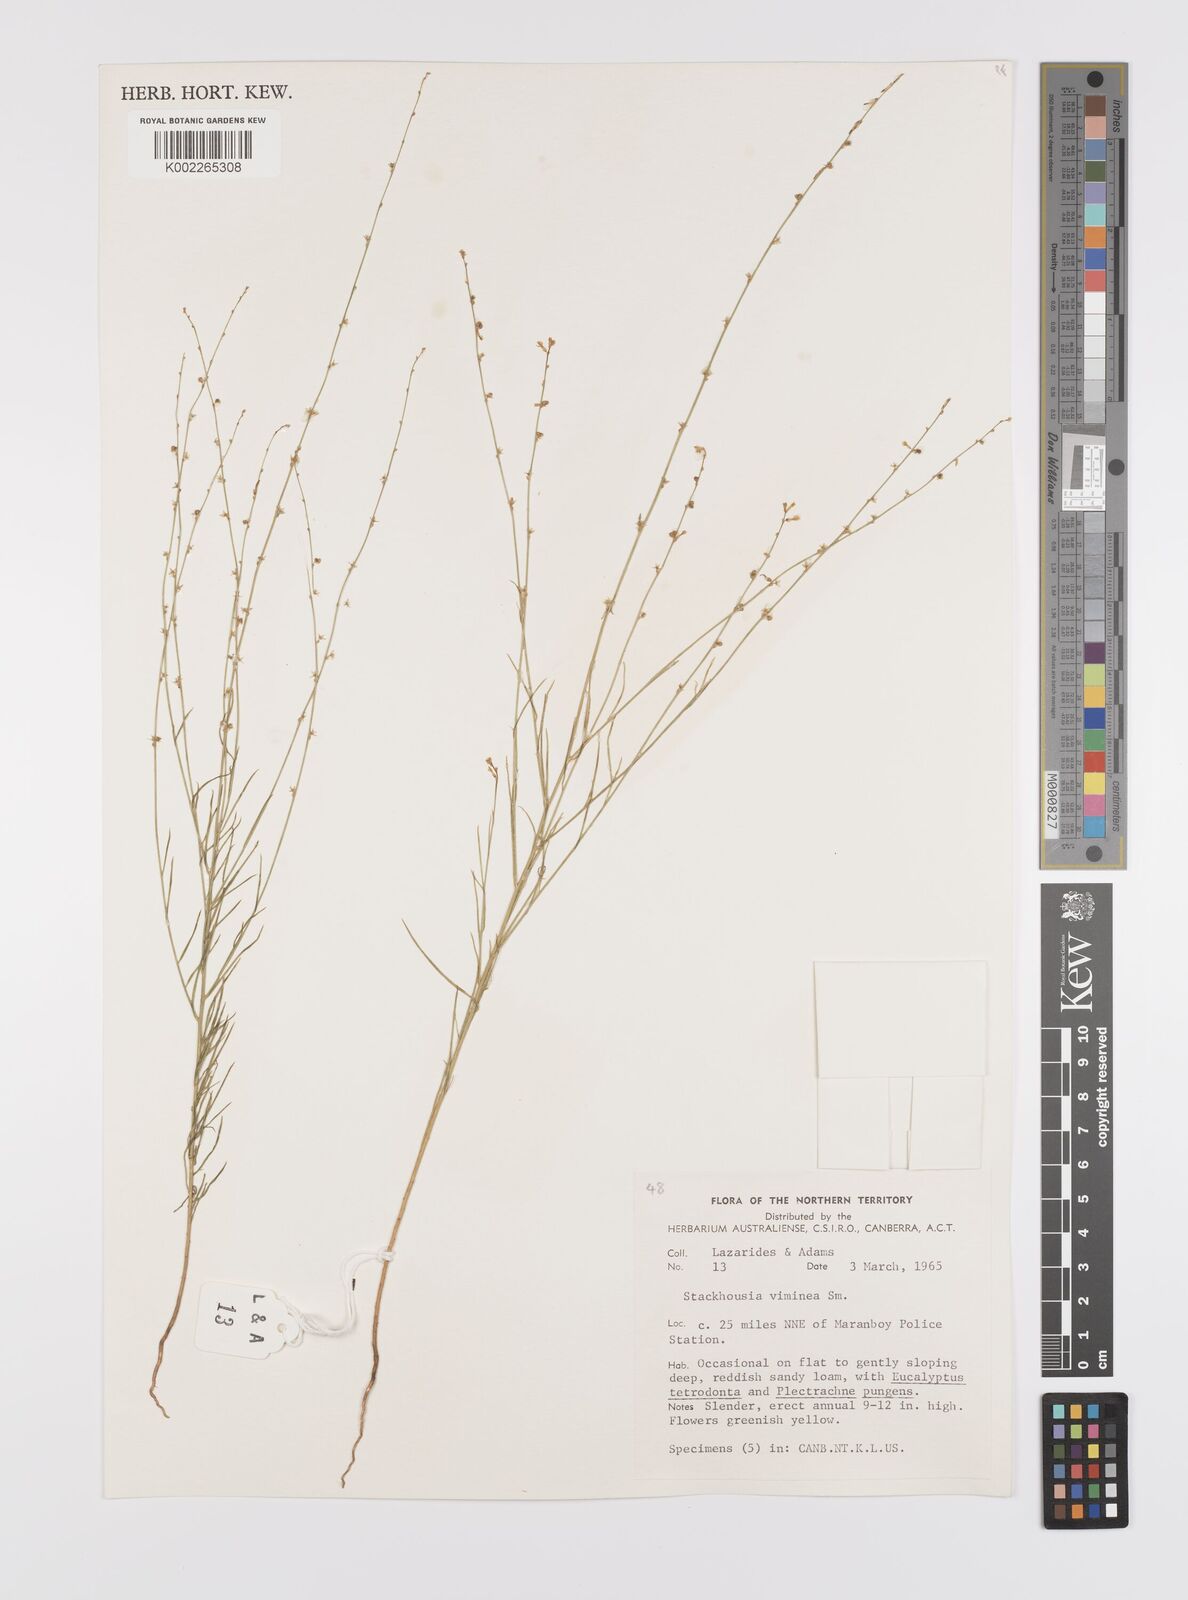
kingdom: Plantae
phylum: Tracheophyta
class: Magnoliopsida
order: Celastrales
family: Celastraceae
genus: Stackhousia
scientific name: Stackhousia viminea
